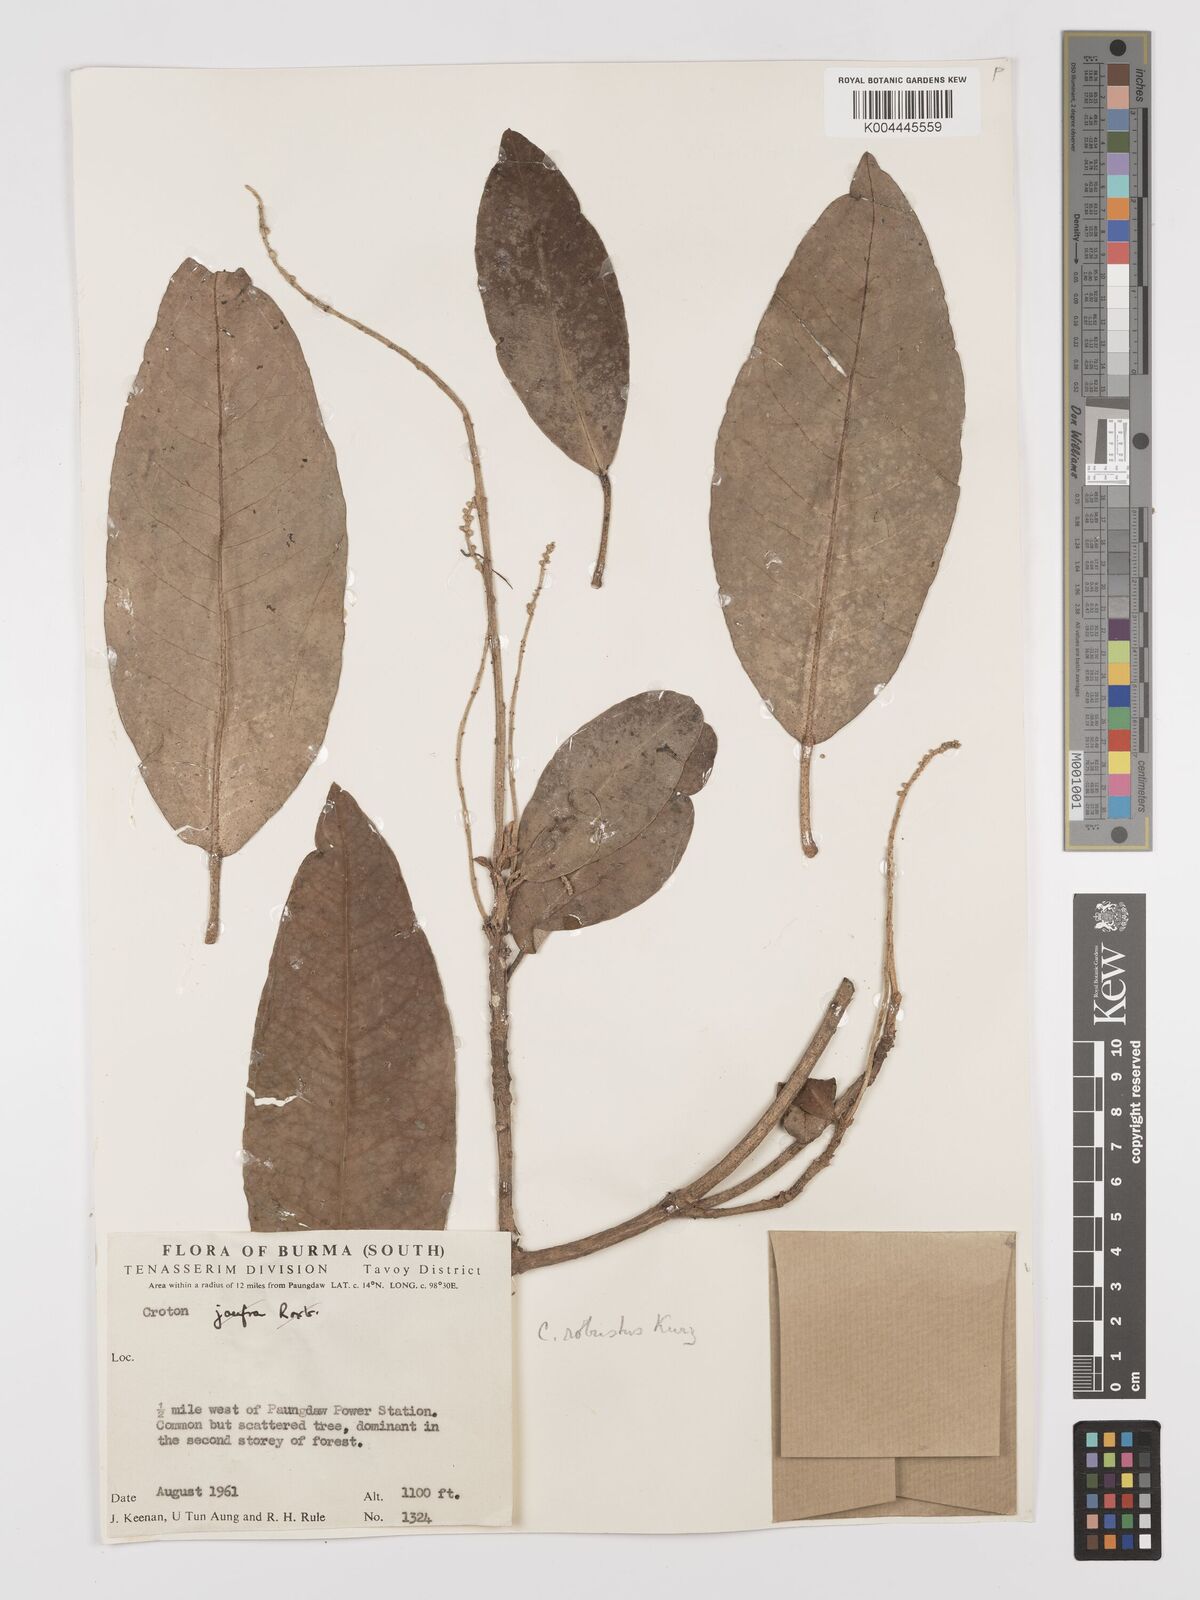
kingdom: Plantae
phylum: Tracheophyta
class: Magnoliopsida
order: Malpighiales
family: Euphorbiaceae
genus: Croton
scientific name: Croton robustus
